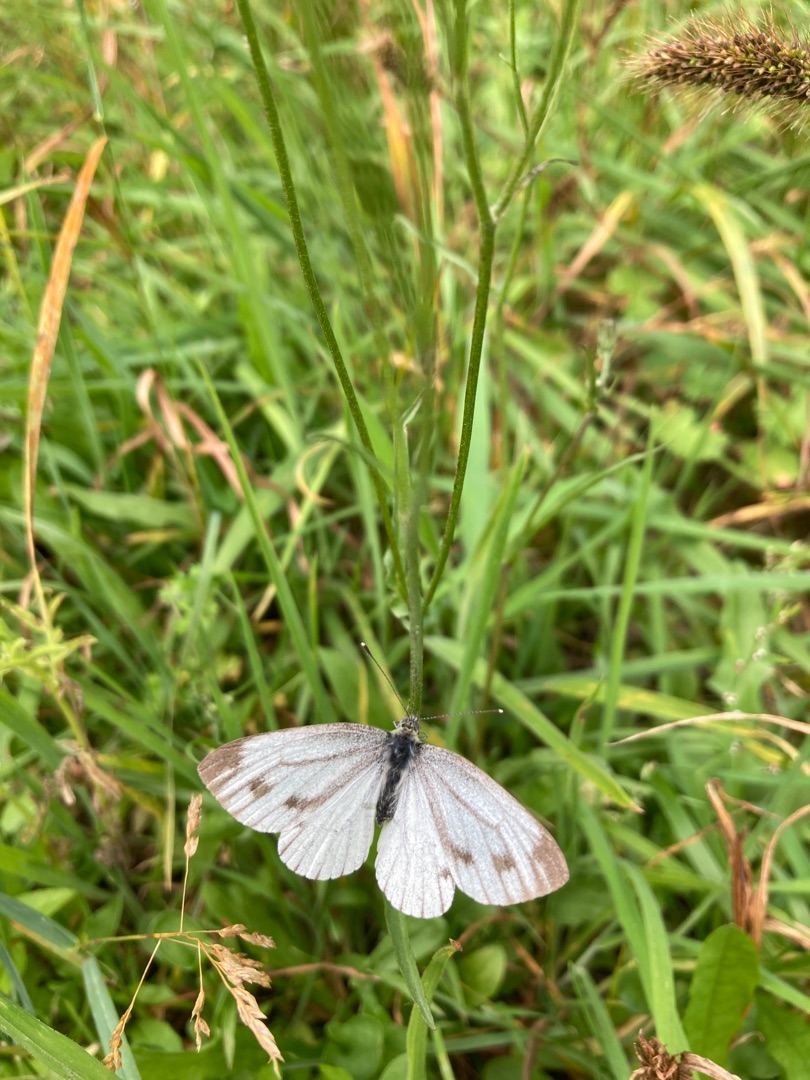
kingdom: Animalia
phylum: Arthropoda
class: Insecta
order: Lepidoptera
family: Pieridae
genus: Pieris
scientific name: Pieris napi
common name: Grønåret kålsommerfugl
